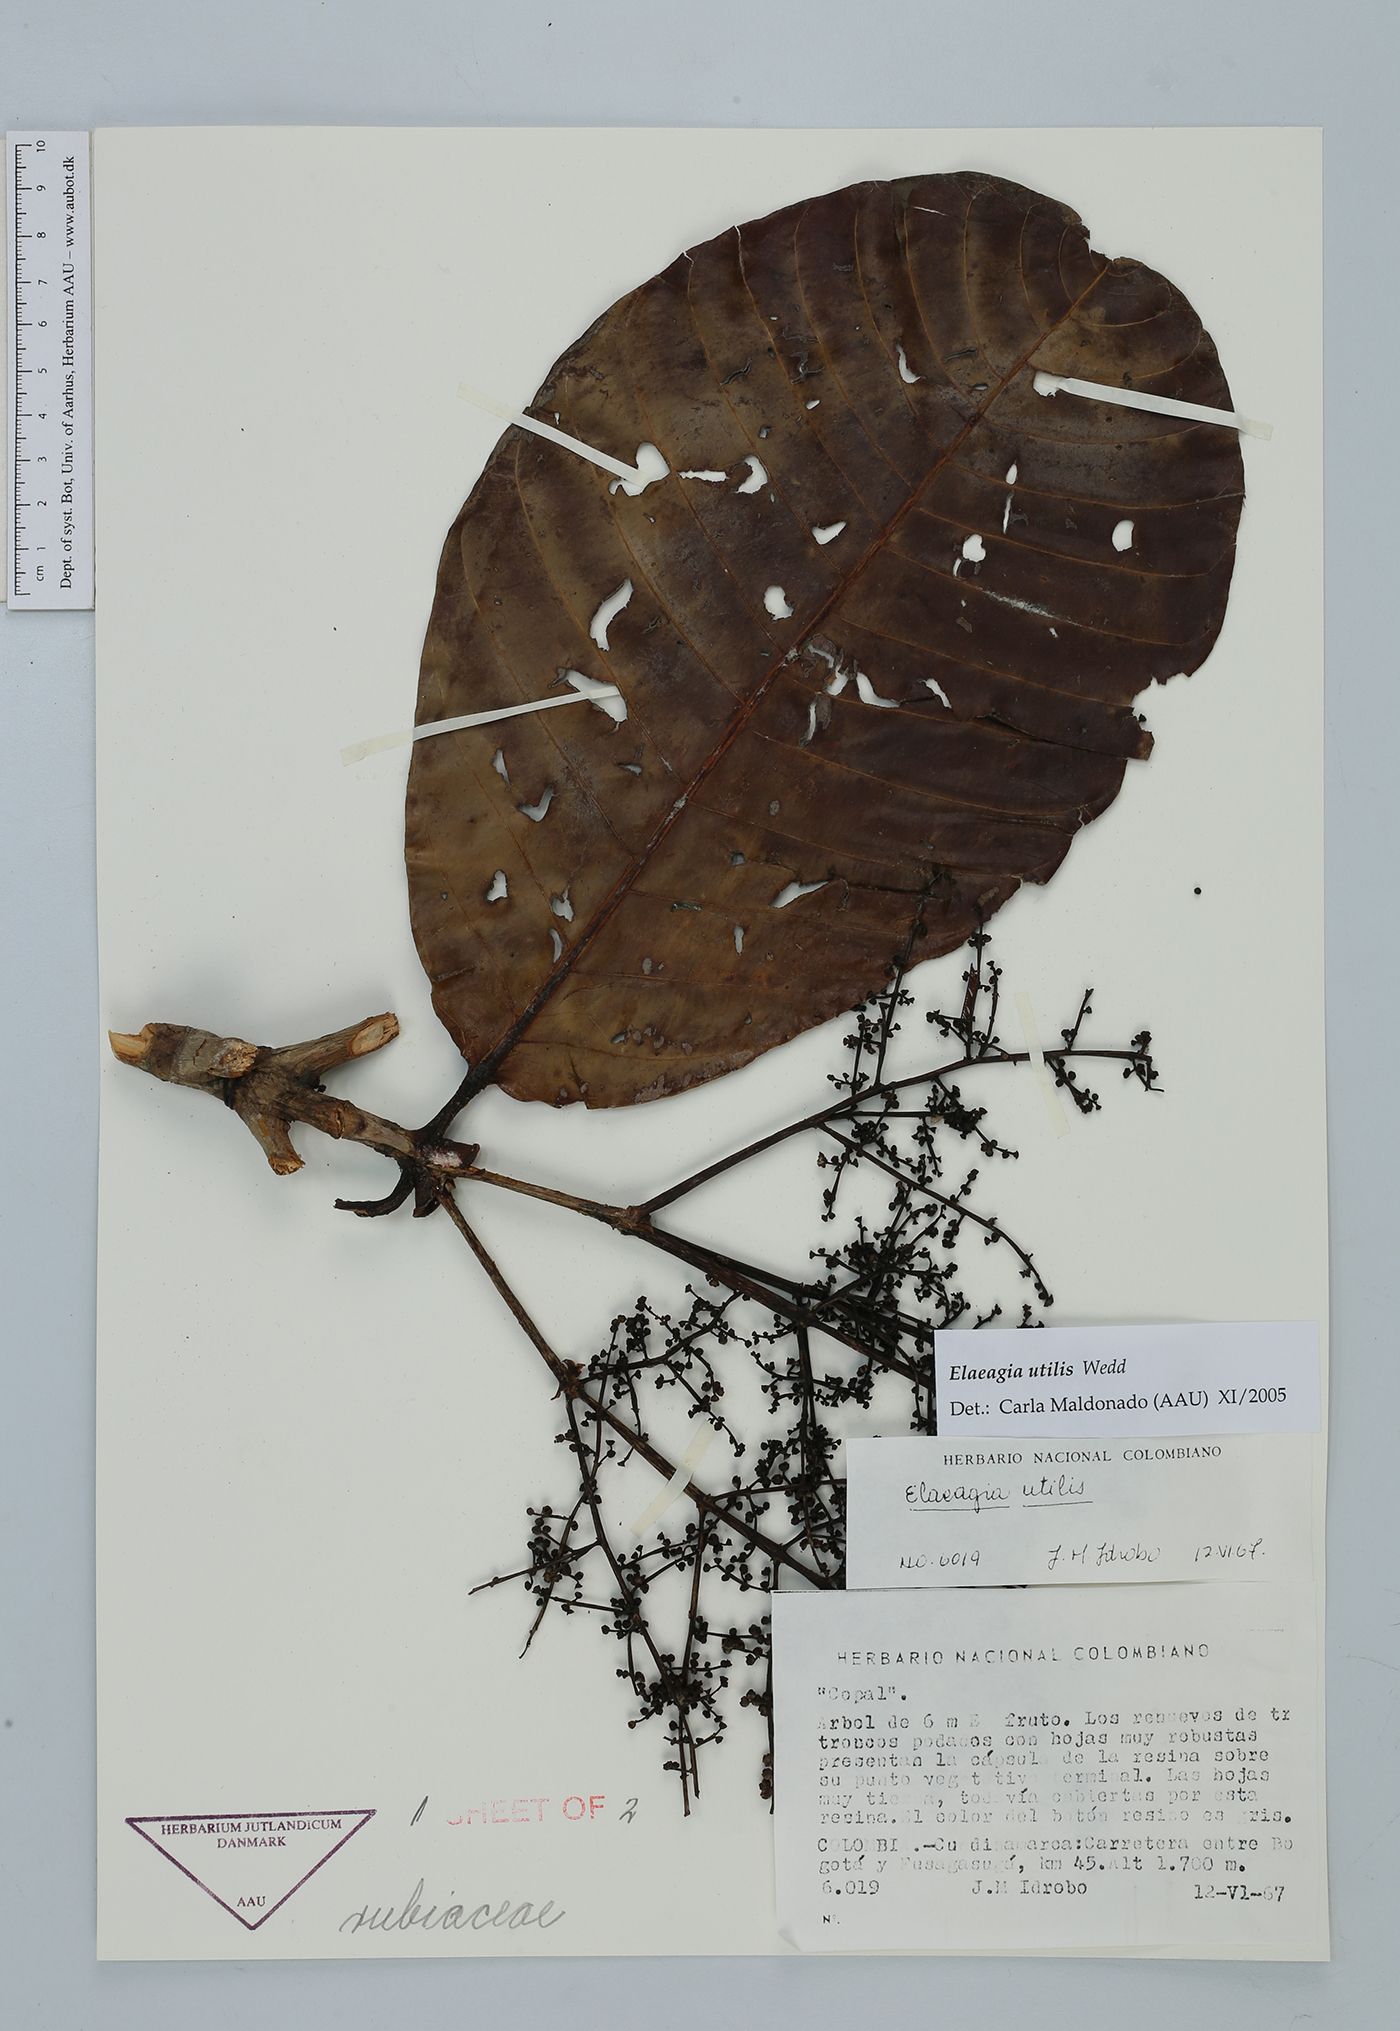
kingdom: Plantae
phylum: Tracheophyta
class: Magnoliopsida
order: Gentianales
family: Rubiaceae
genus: Elaeagia
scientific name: Elaeagia utilis
